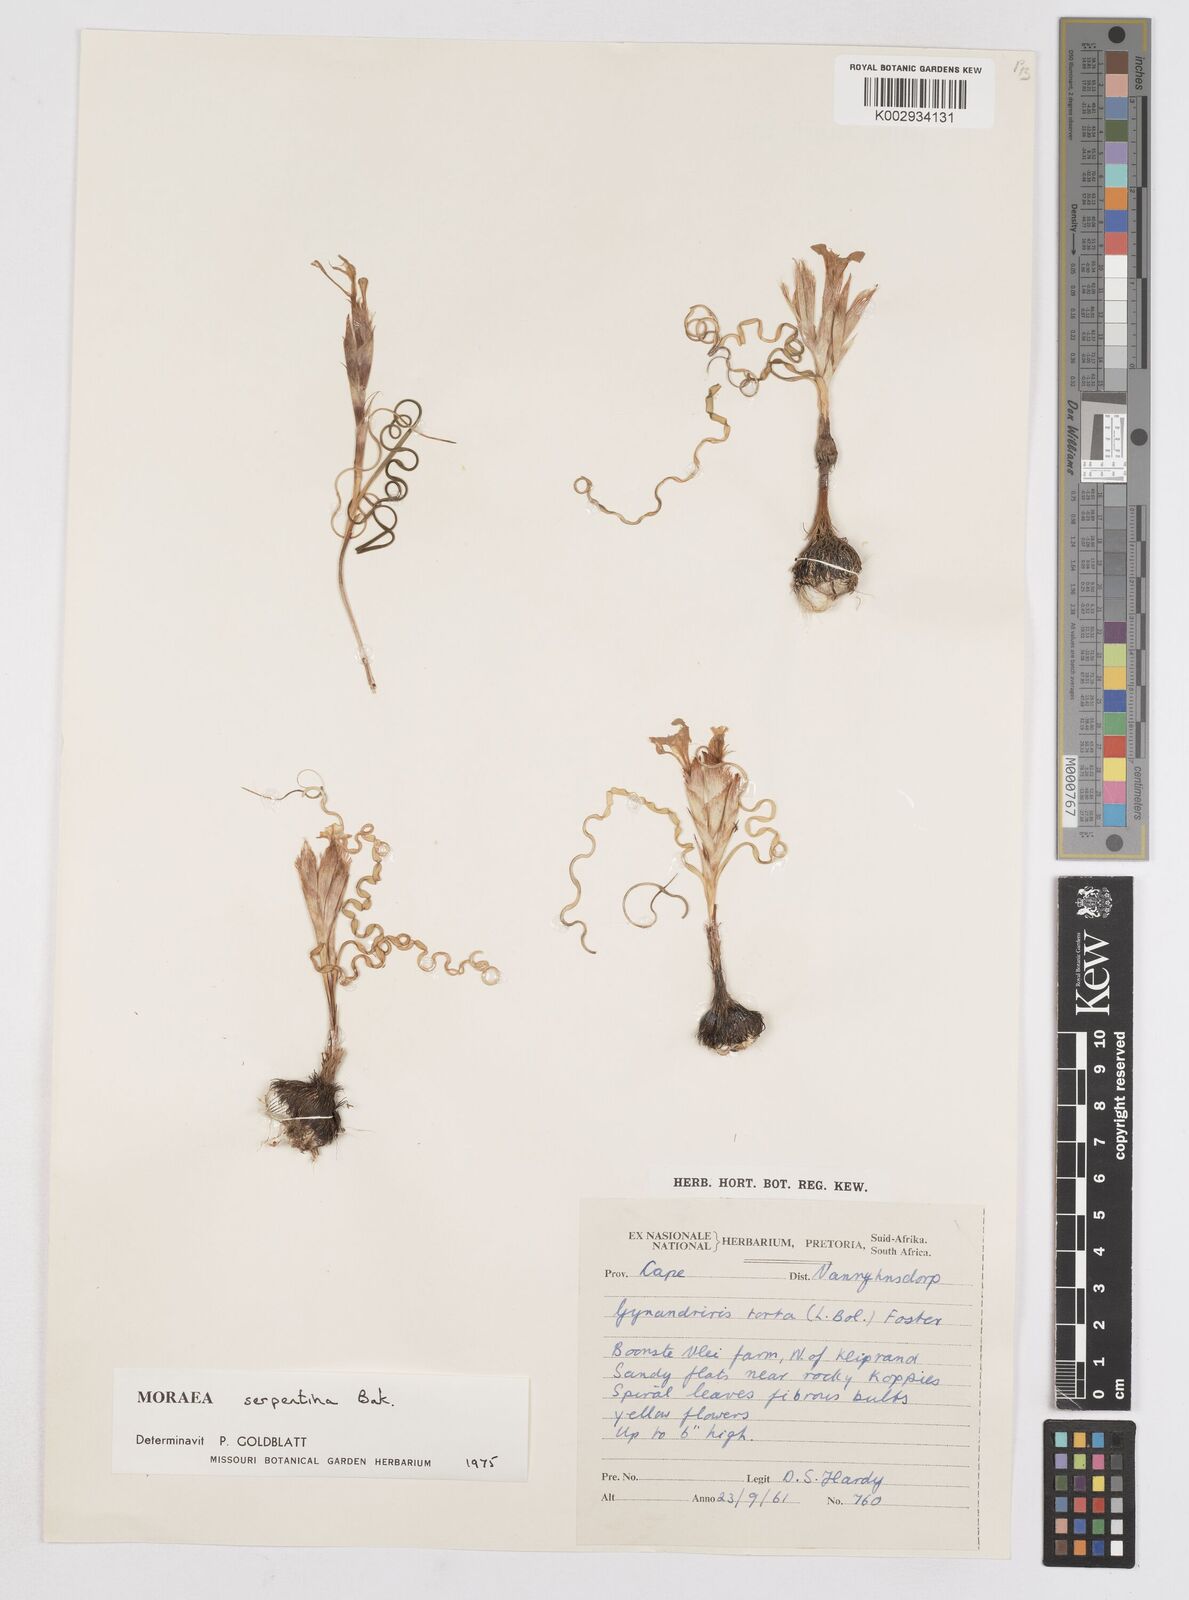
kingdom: Plantae
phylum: Tracheophyta
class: Liliopsida
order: Asparagales
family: Iridaceae
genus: Moraea
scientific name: Moraea serpentina
